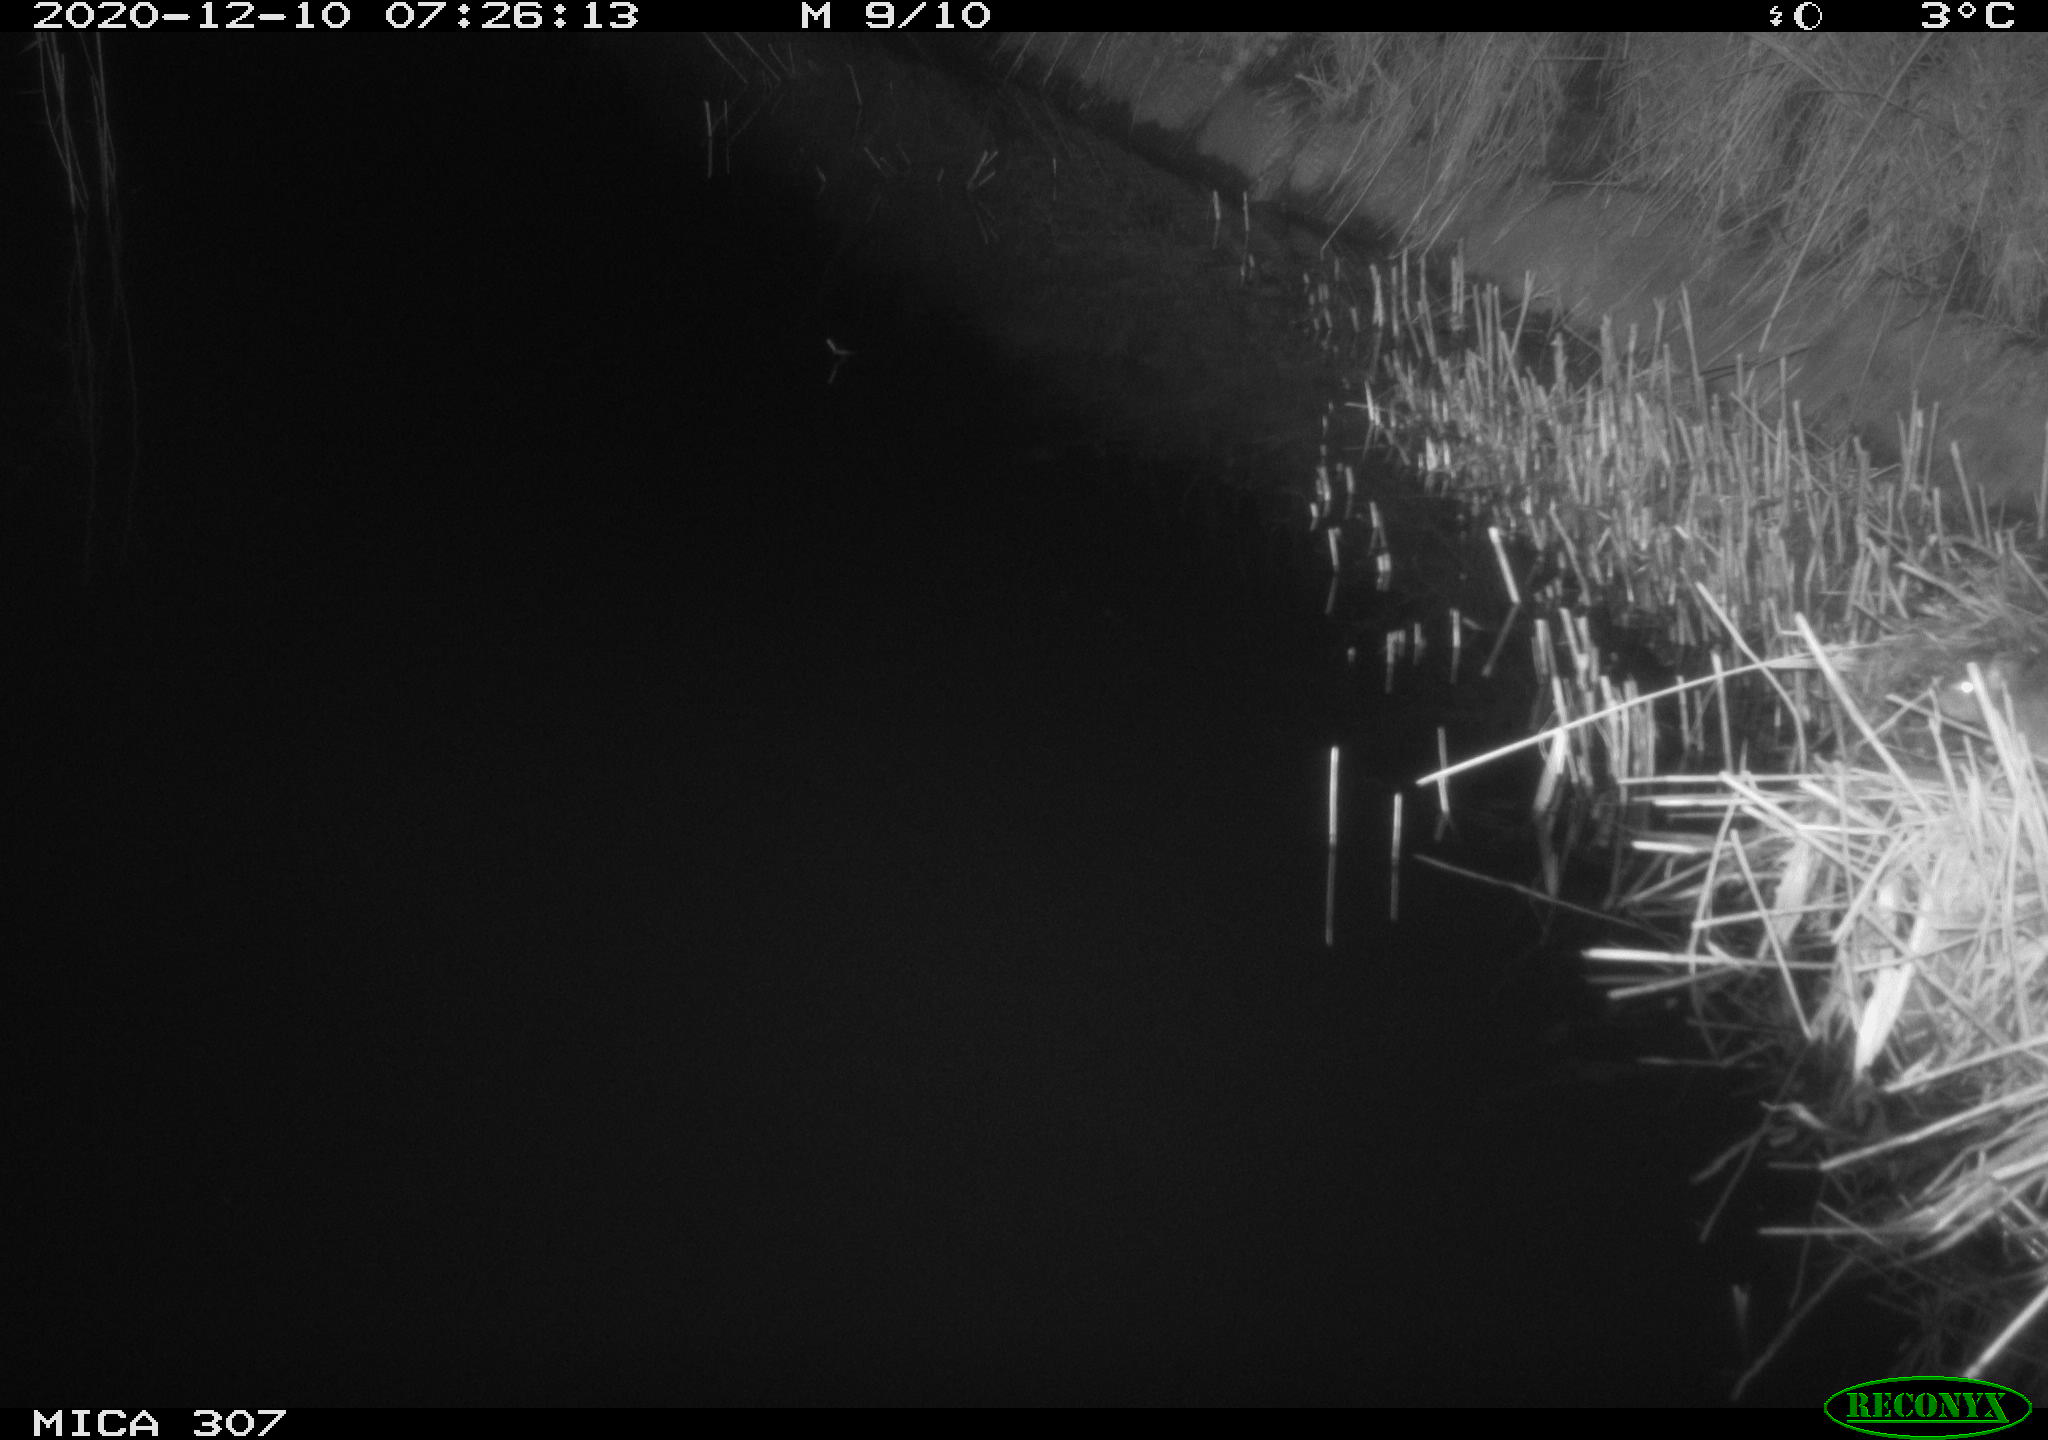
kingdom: Animalia
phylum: Chordata
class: Mammalia
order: Rodentia
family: Muridae
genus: Rattus
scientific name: Rattus norvegicus
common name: Brown rat
